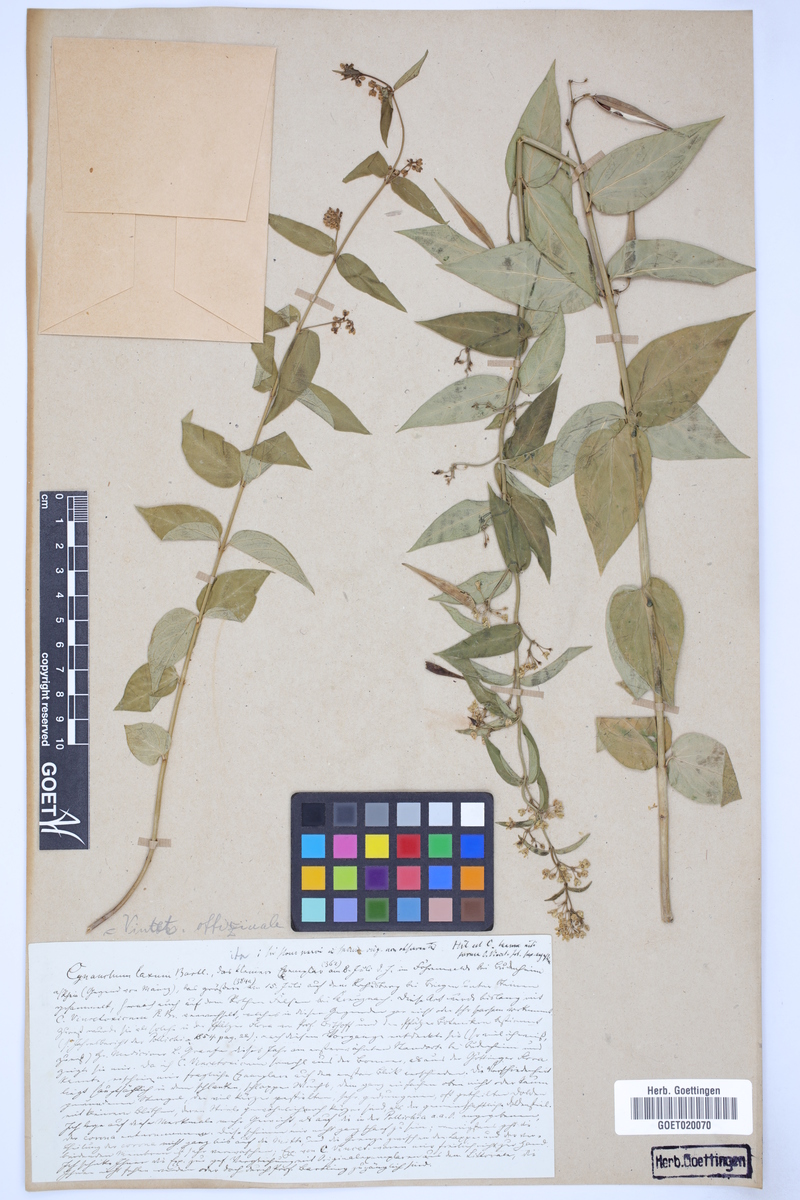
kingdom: Plantae
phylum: Tracheophyta
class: Magnoliopsida
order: Gentianales
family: Apocynaceae
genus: Vincetoxicum
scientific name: Vincetoxicum hirundinaria
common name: White swallowwort
